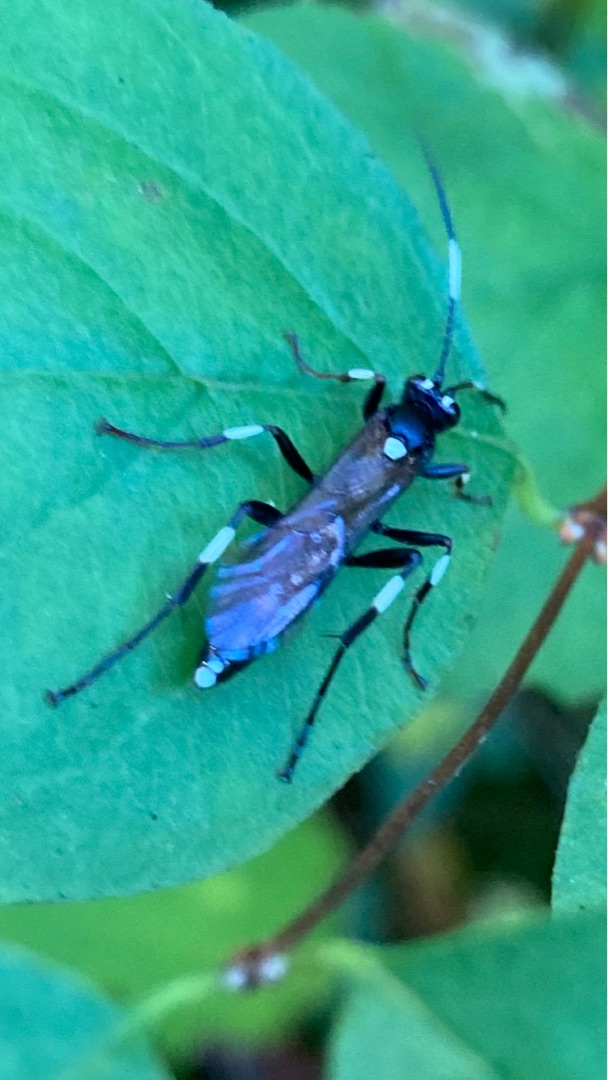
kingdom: Animalia
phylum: Arthropoda
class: Insecta
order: Hymenoptera
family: Ichneumonidae
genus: Achaius
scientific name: Achaius oratorius
